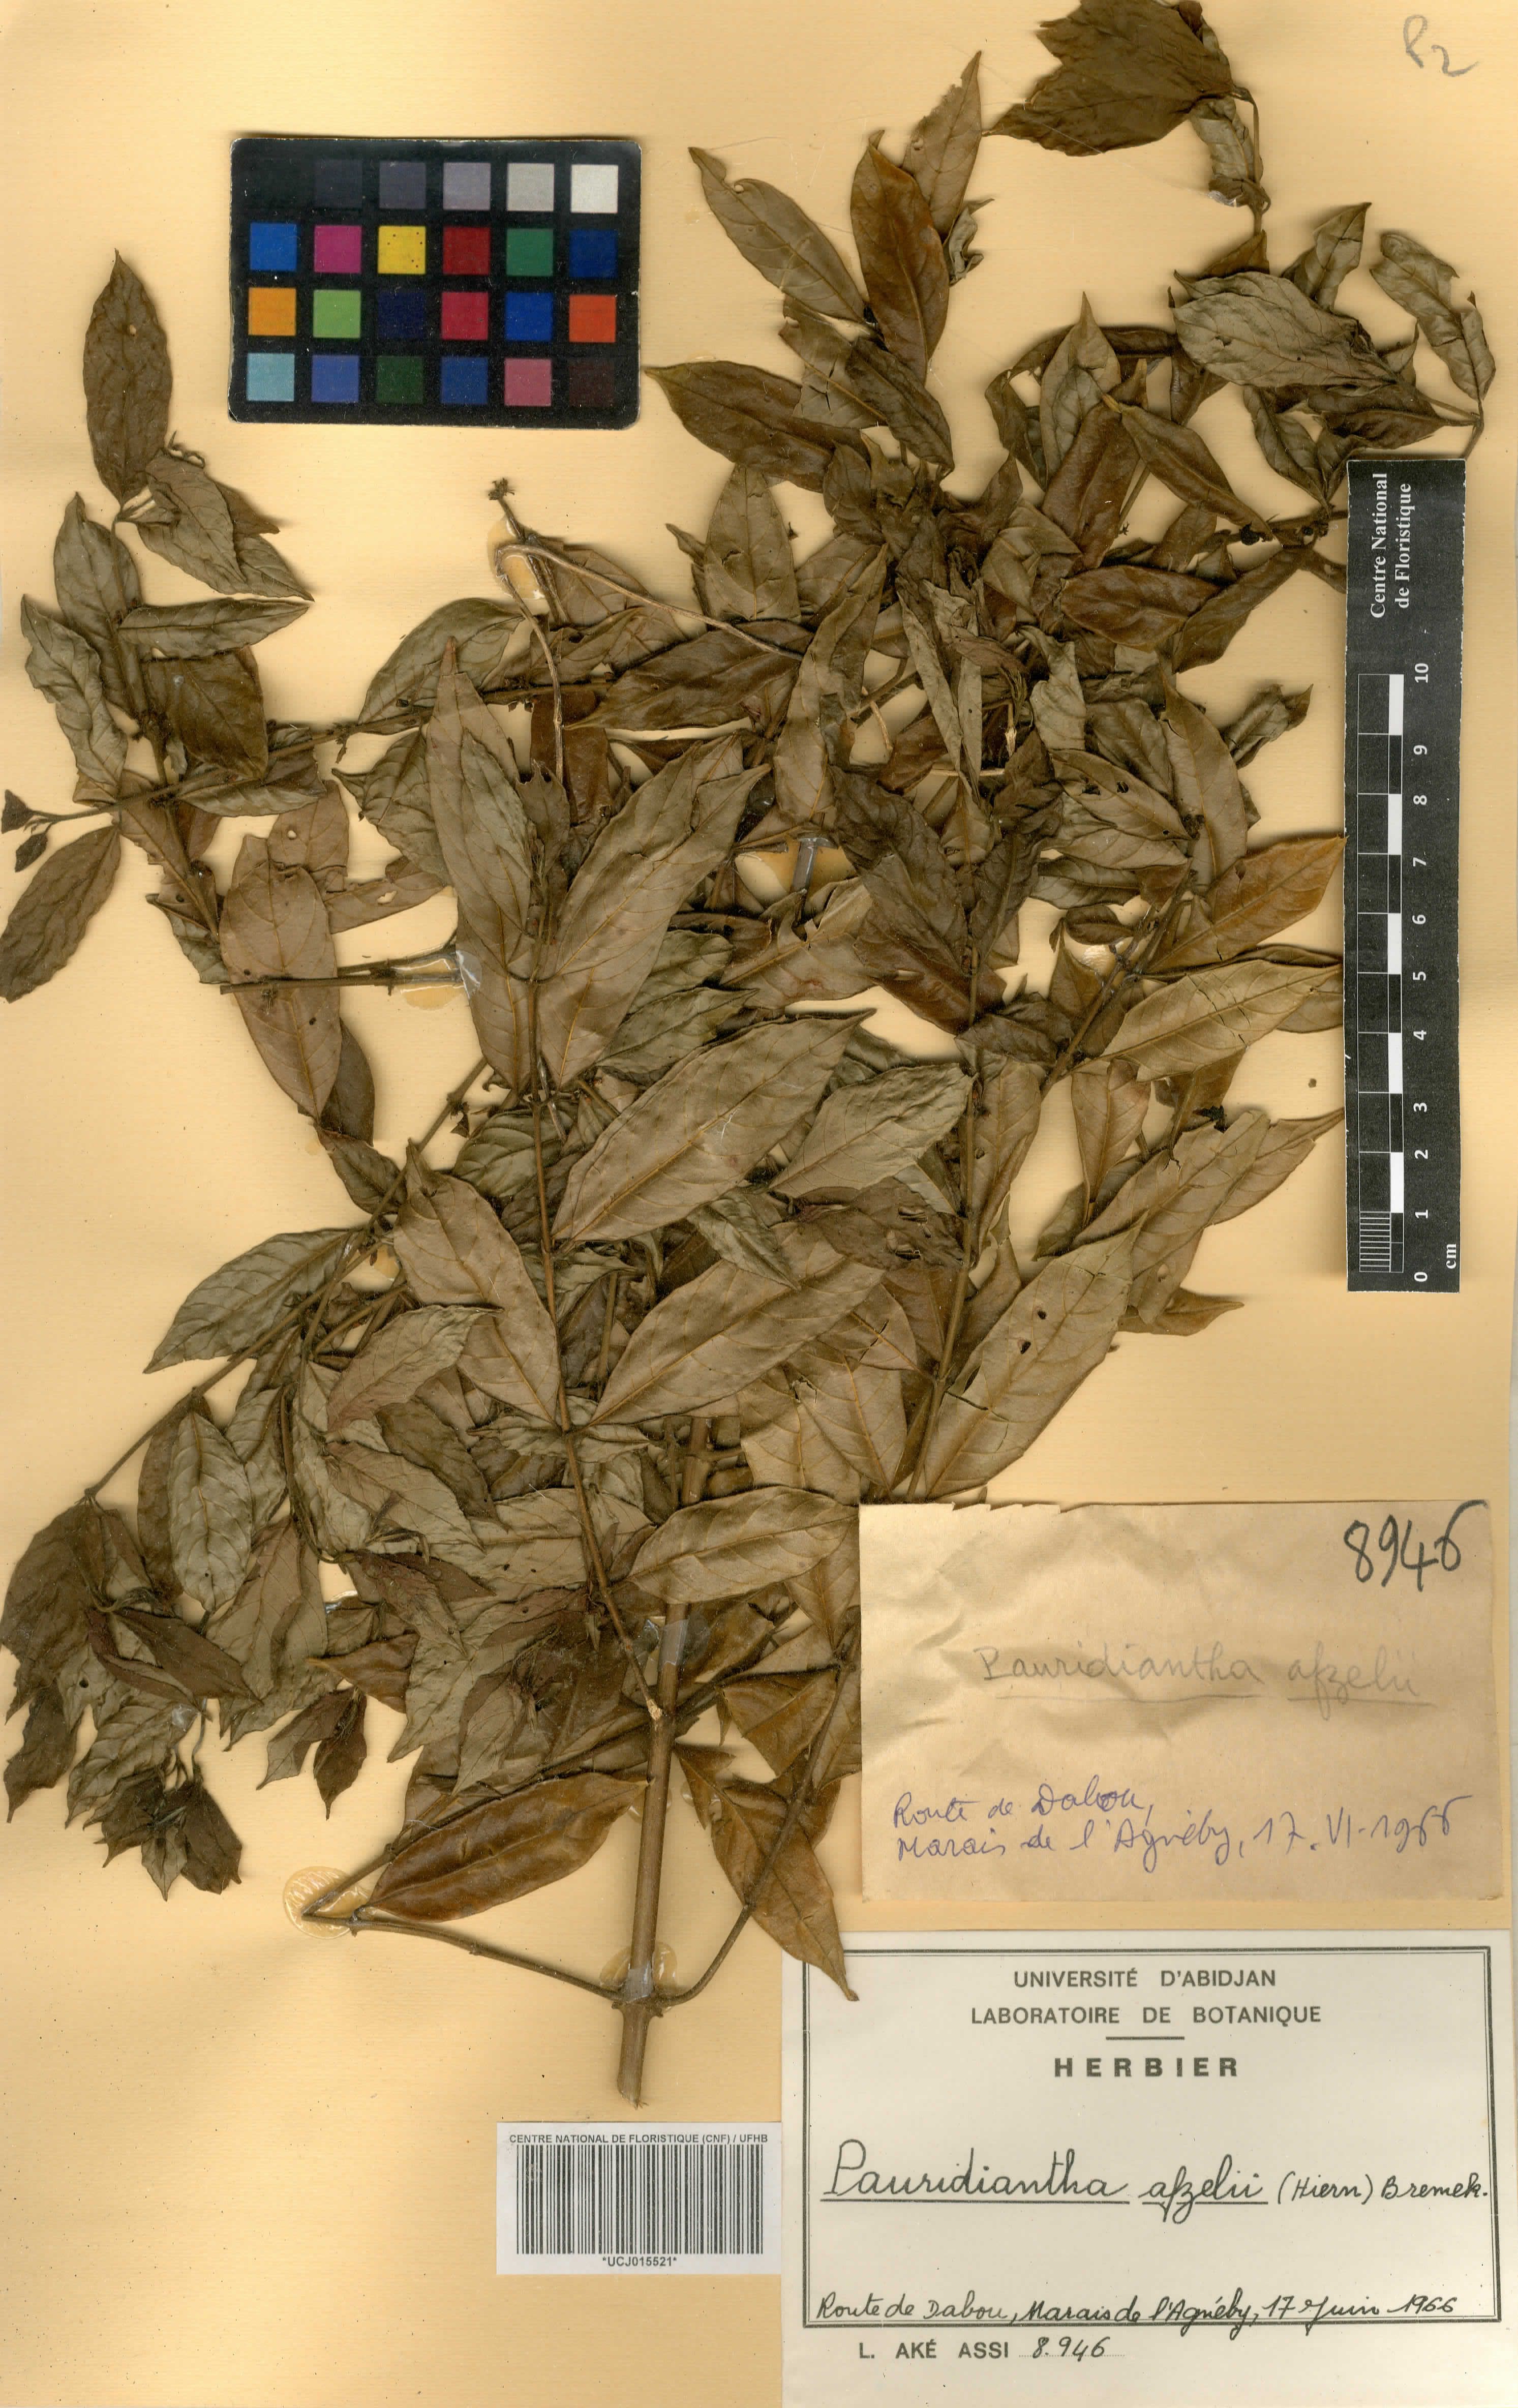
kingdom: Plantae
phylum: Tracheophyta
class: Magnoliopsida
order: Gentianales
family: Rubiaceae
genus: Pauridiantha
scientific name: Pauridiantha afzelii
